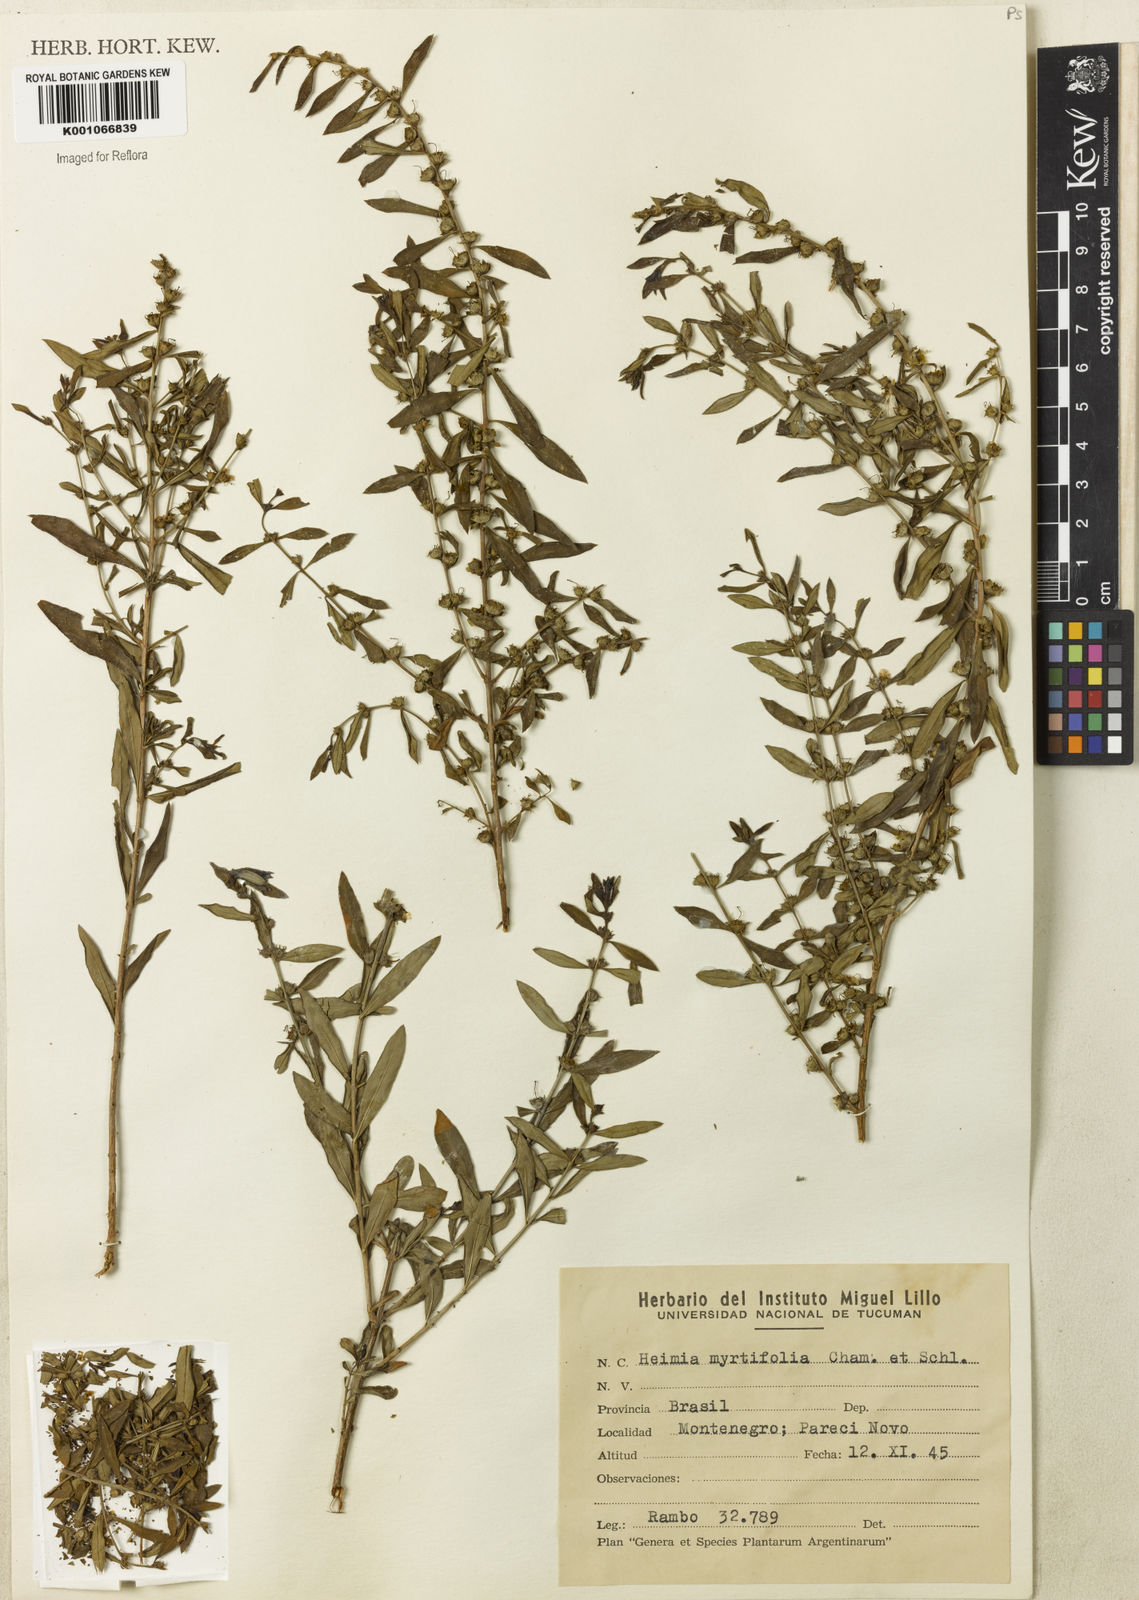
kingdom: Plantae
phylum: Tracheophyta
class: Magnoliopsida
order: Myrtales
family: Lythraceae
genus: Heimia
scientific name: Heimia apetala
